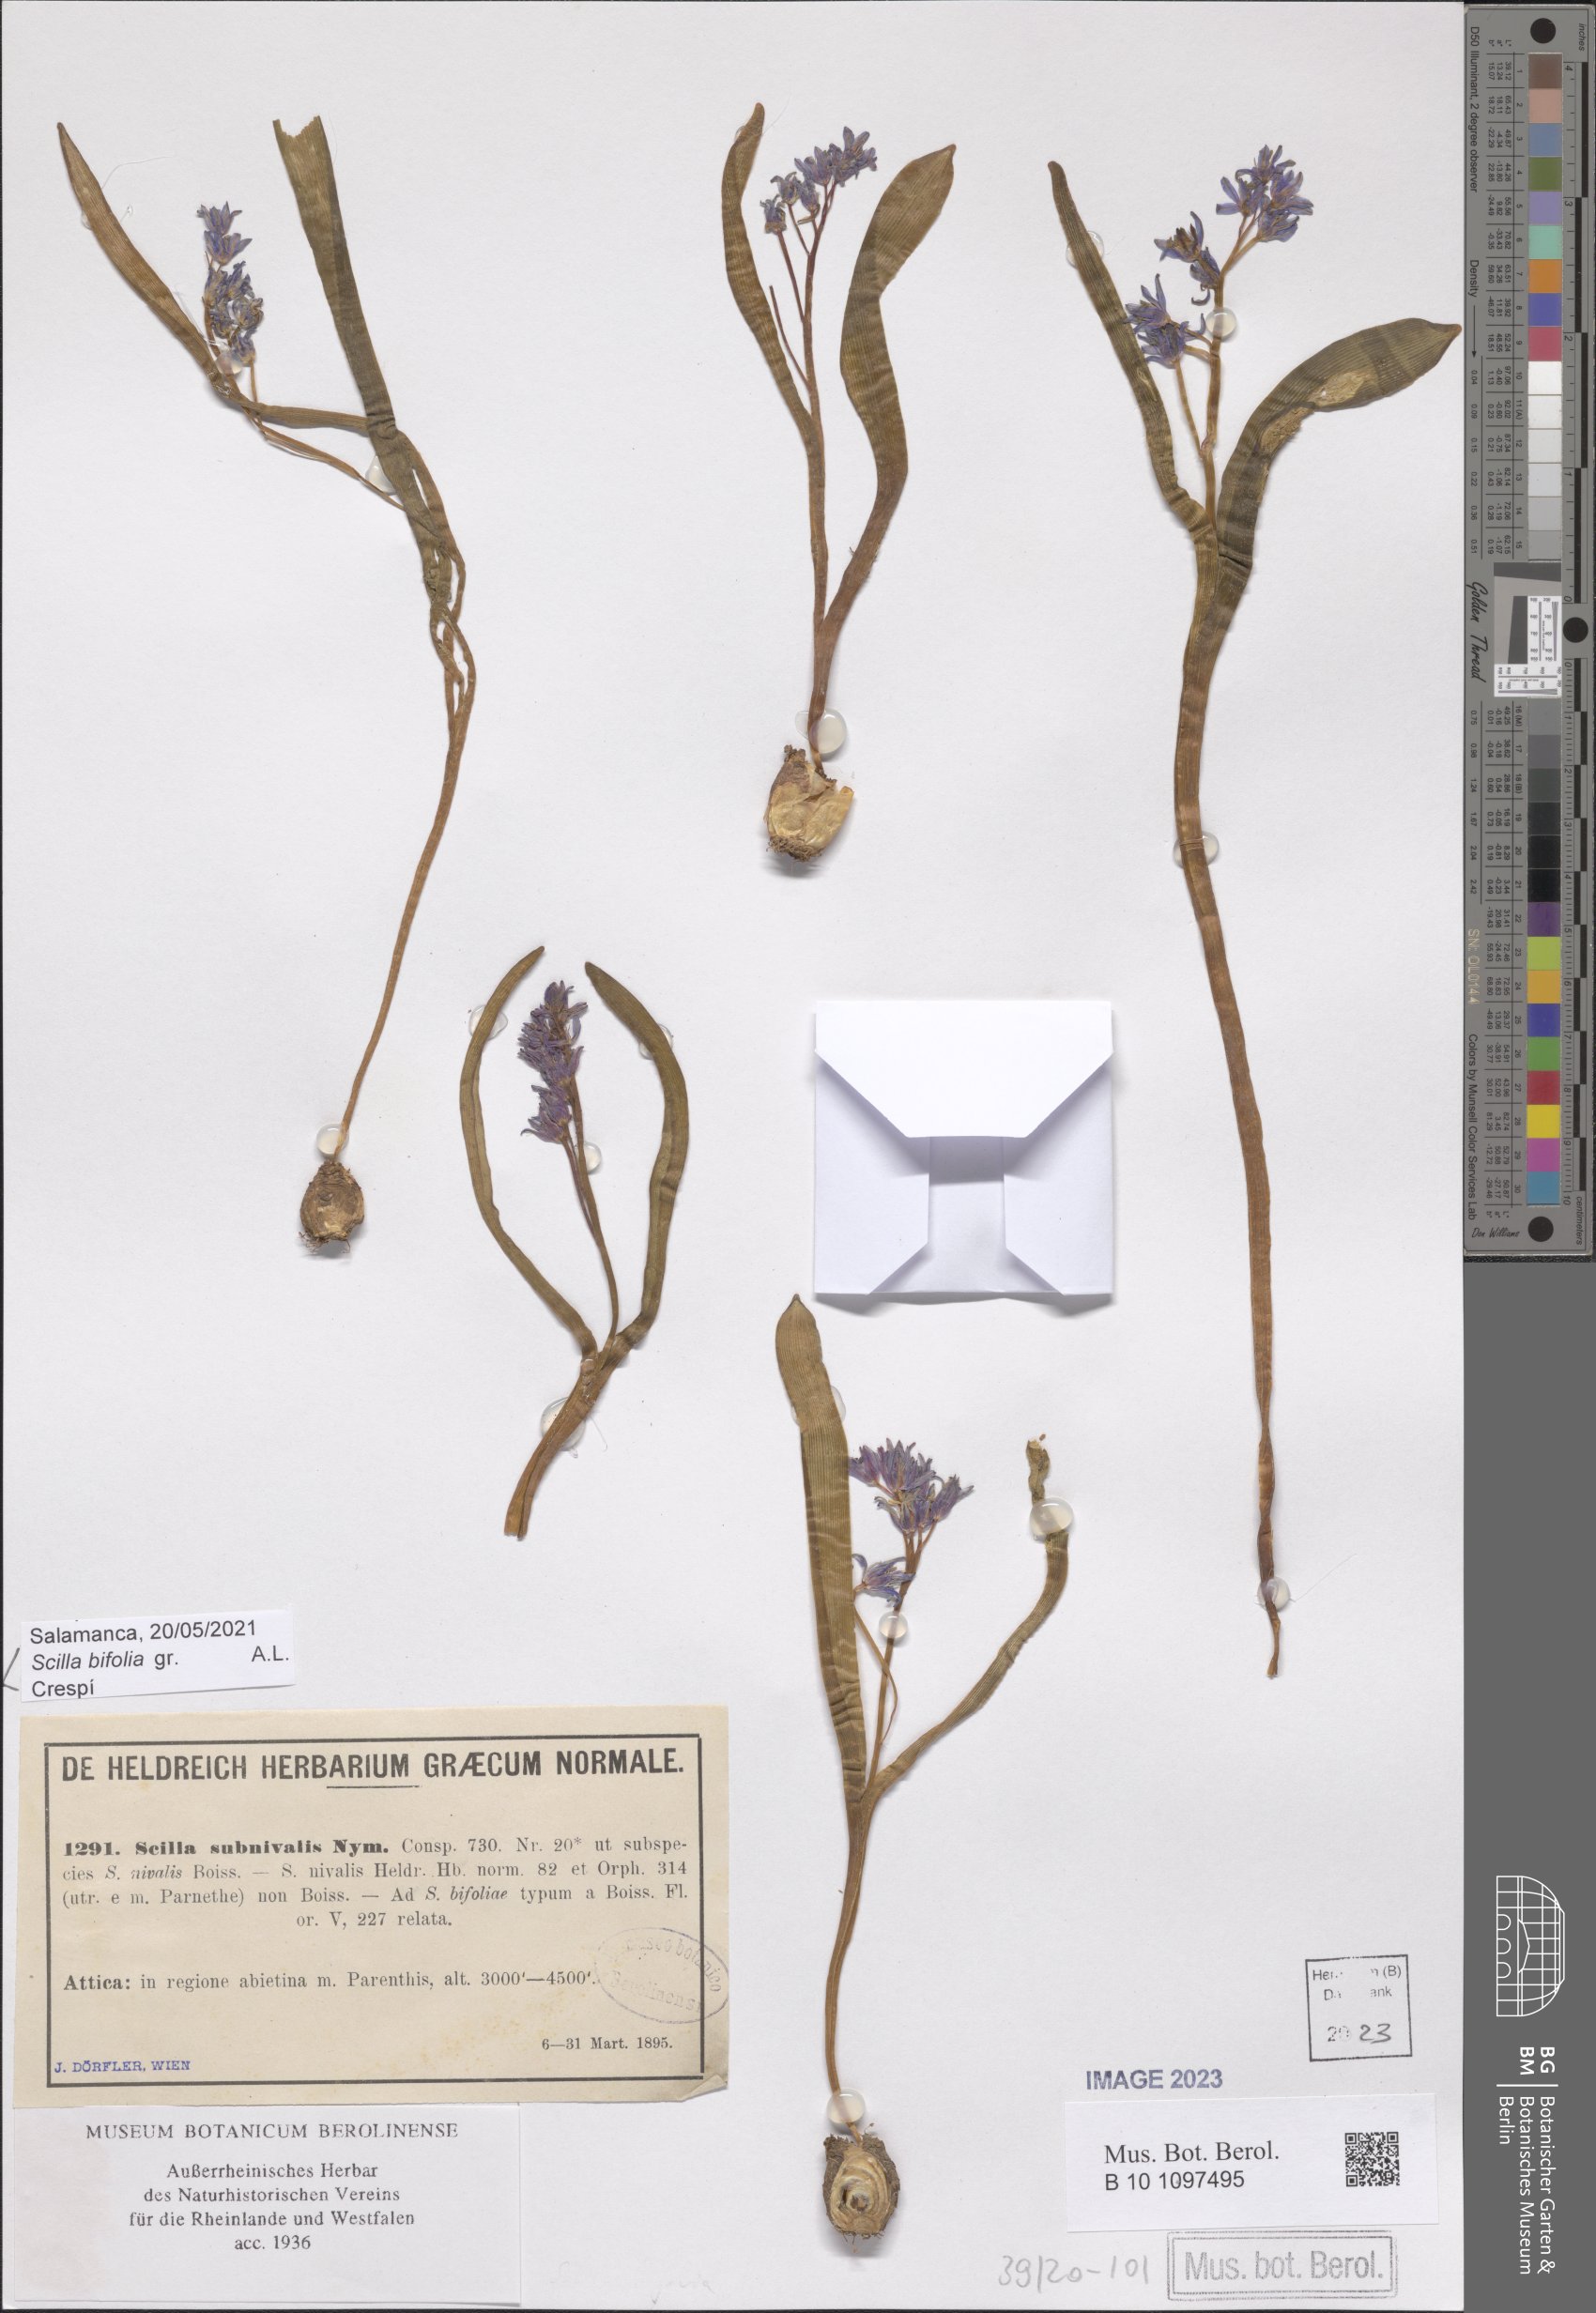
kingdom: Plantae
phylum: Tracheophyta
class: Liliopsida
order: Asparagales
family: Asparagaceae
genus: Scilla
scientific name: Scilla bifolia
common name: Alpine squill
